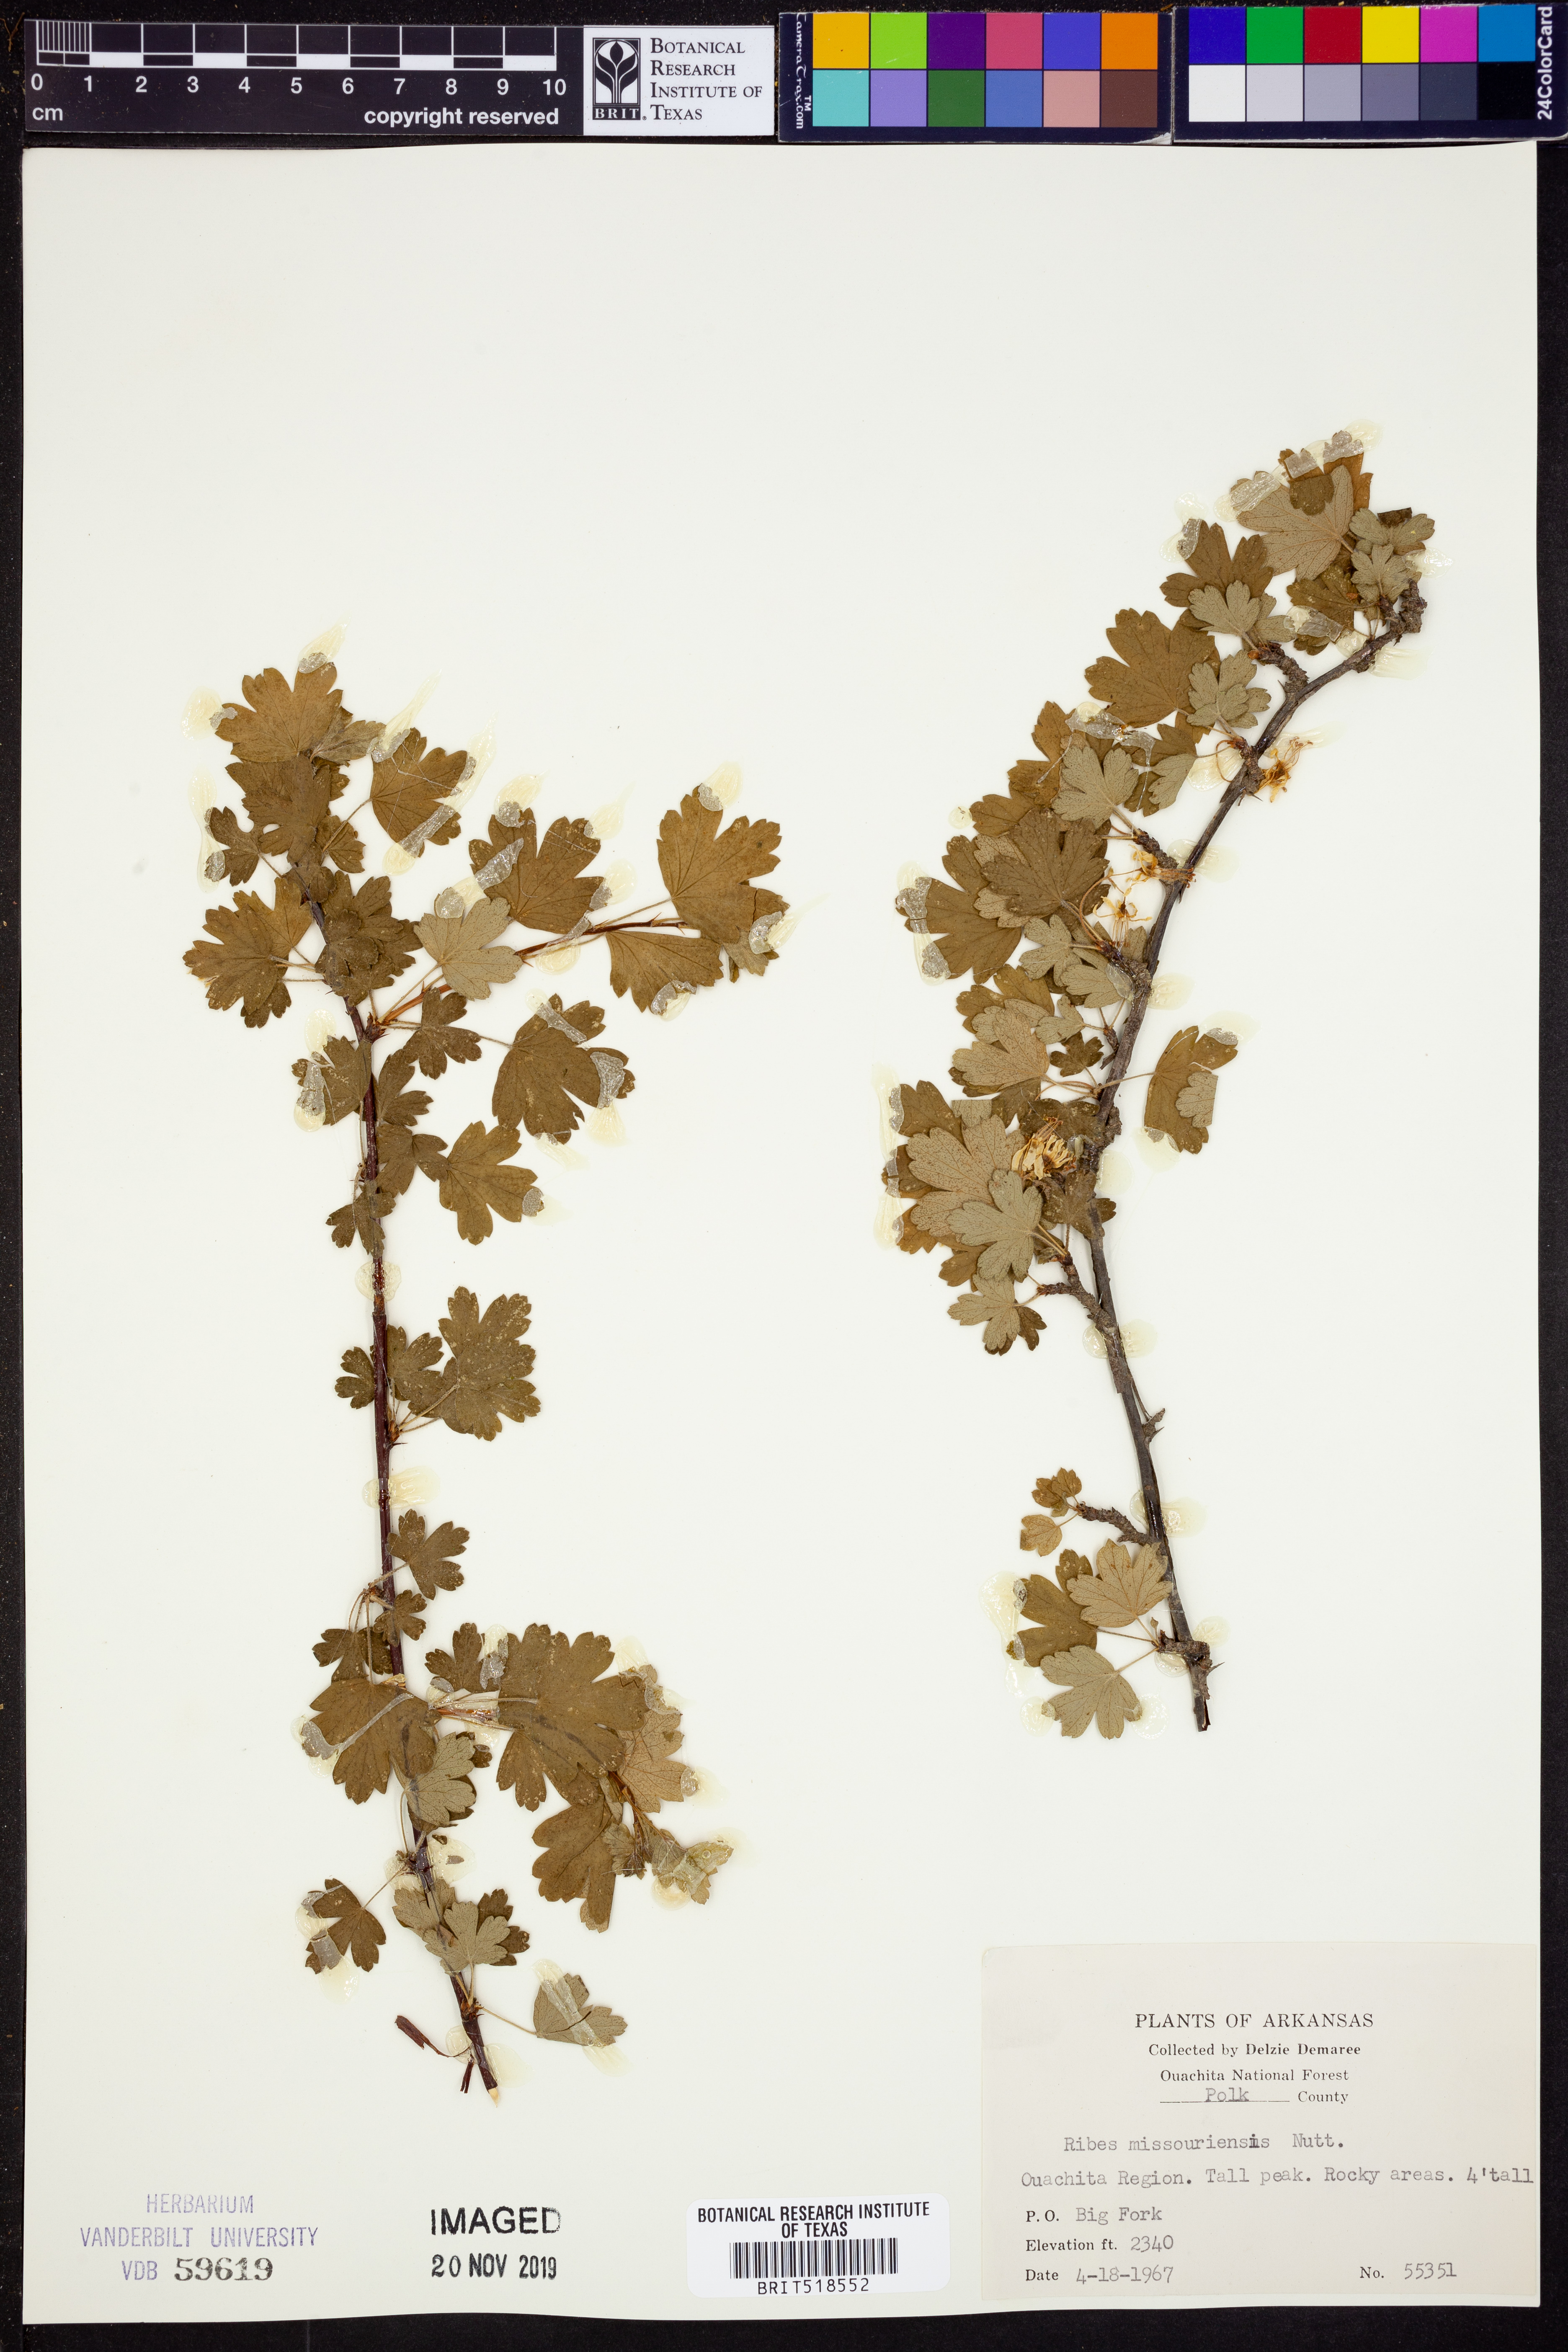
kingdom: Plantae
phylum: Tracheophyta
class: Magnoliopsida
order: Saxifragales
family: Grossulariaceae
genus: Ribes
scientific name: Ribes missouriense
